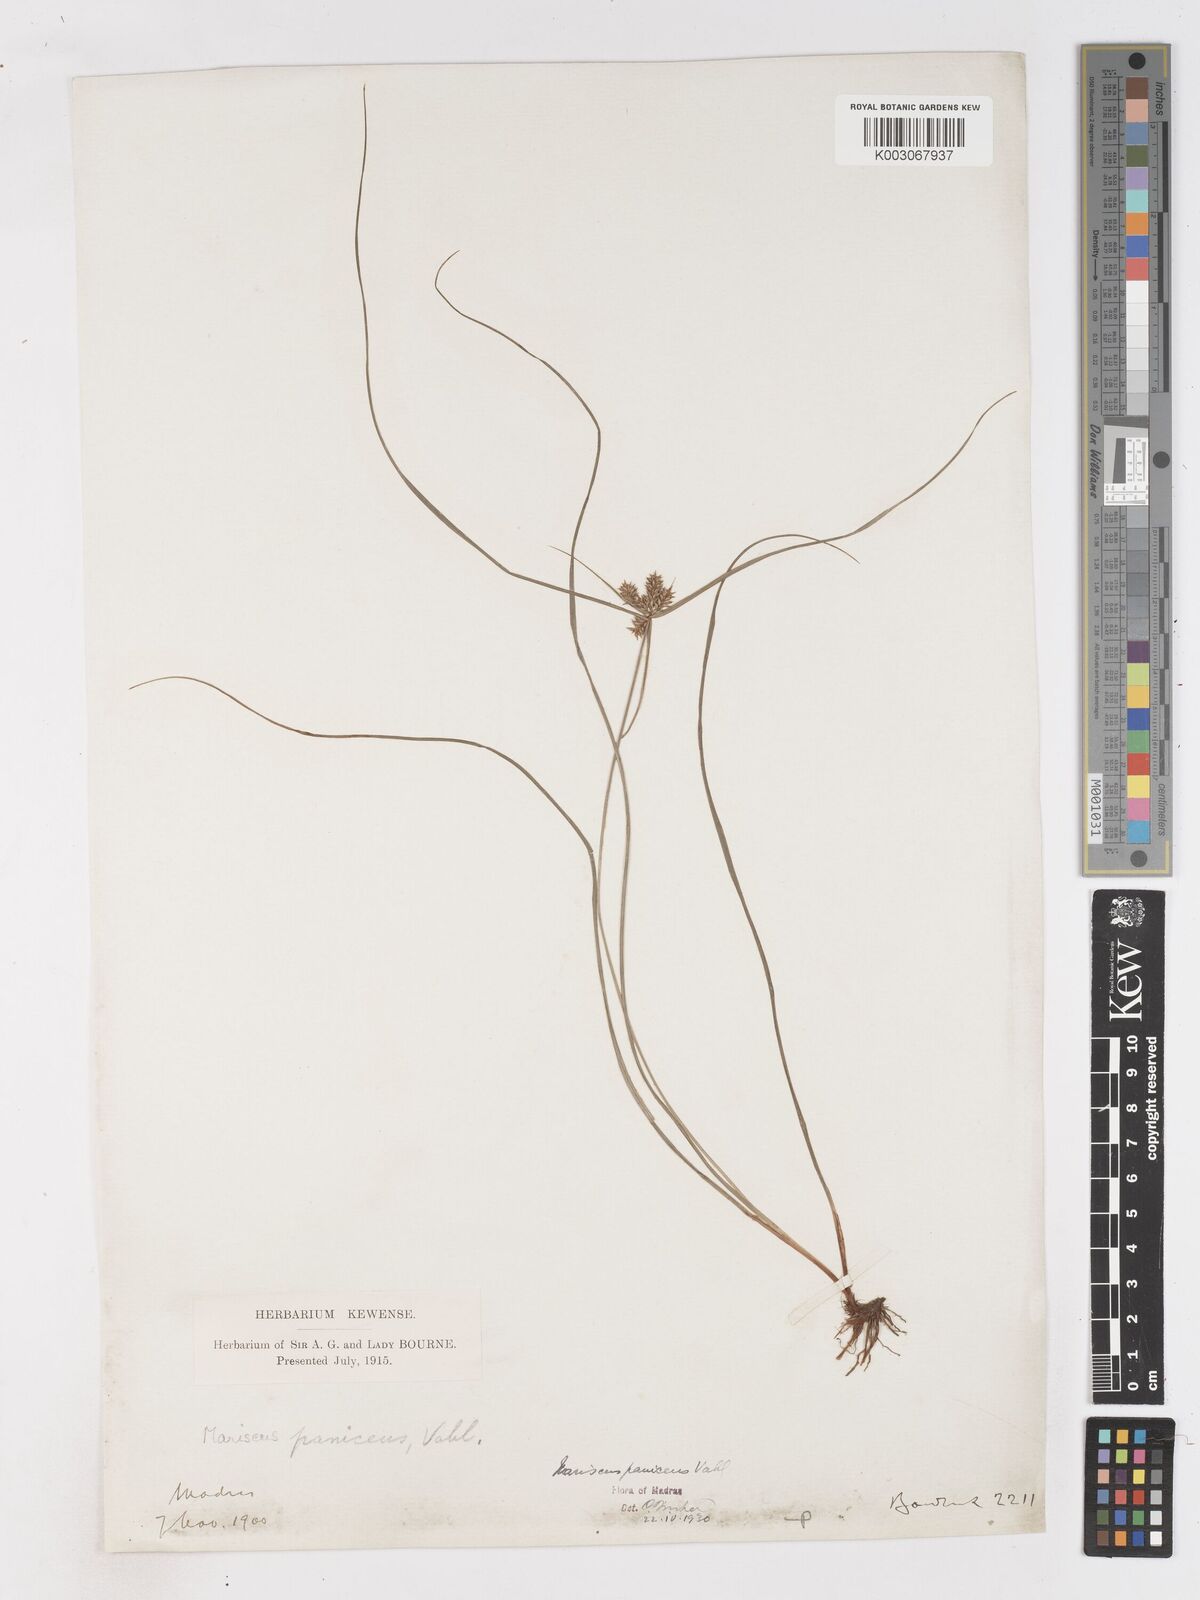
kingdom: Plantae
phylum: Tracheophyta
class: Liliopsida
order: Poales
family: Cyperaceae
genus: Cyperus
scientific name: Cyperus paniceus
